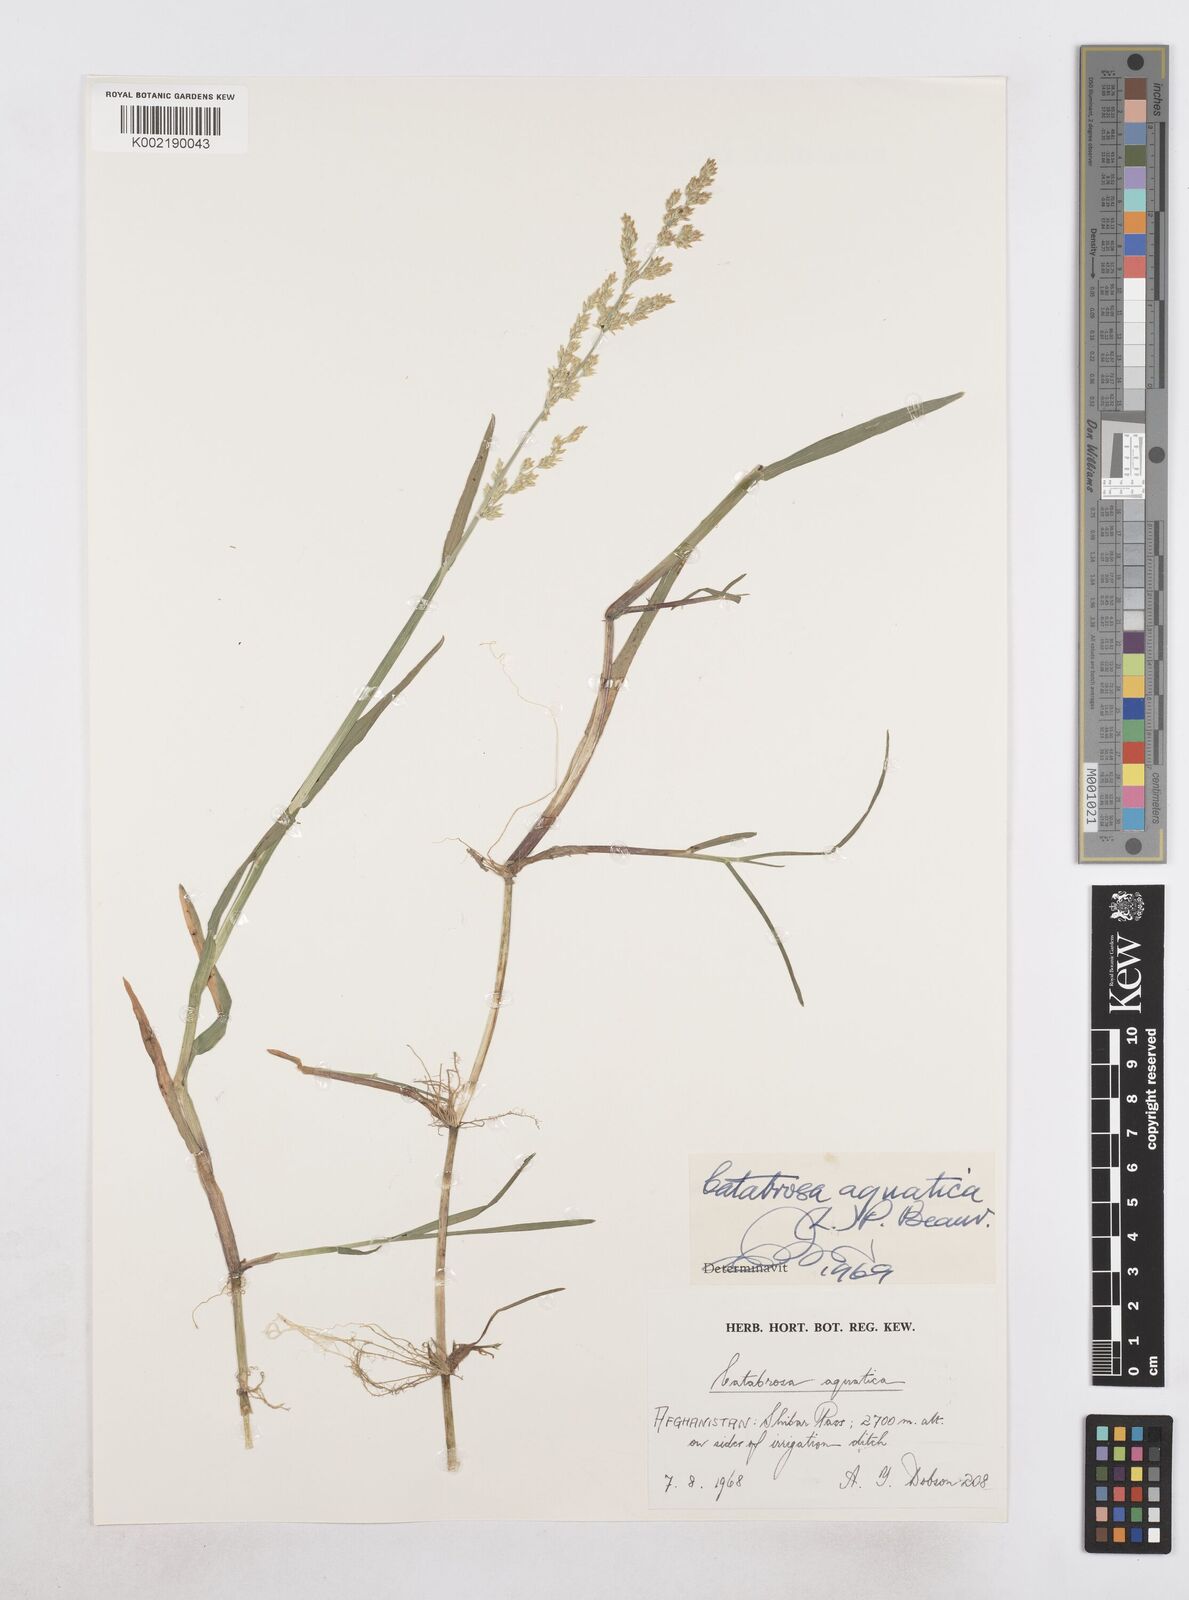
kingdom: Plantae
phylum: Tracheophyta
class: Liliopsida
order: Poales
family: Poaceae
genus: Catabrosa
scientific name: Catabrosa aquatica
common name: Whorl-grass
